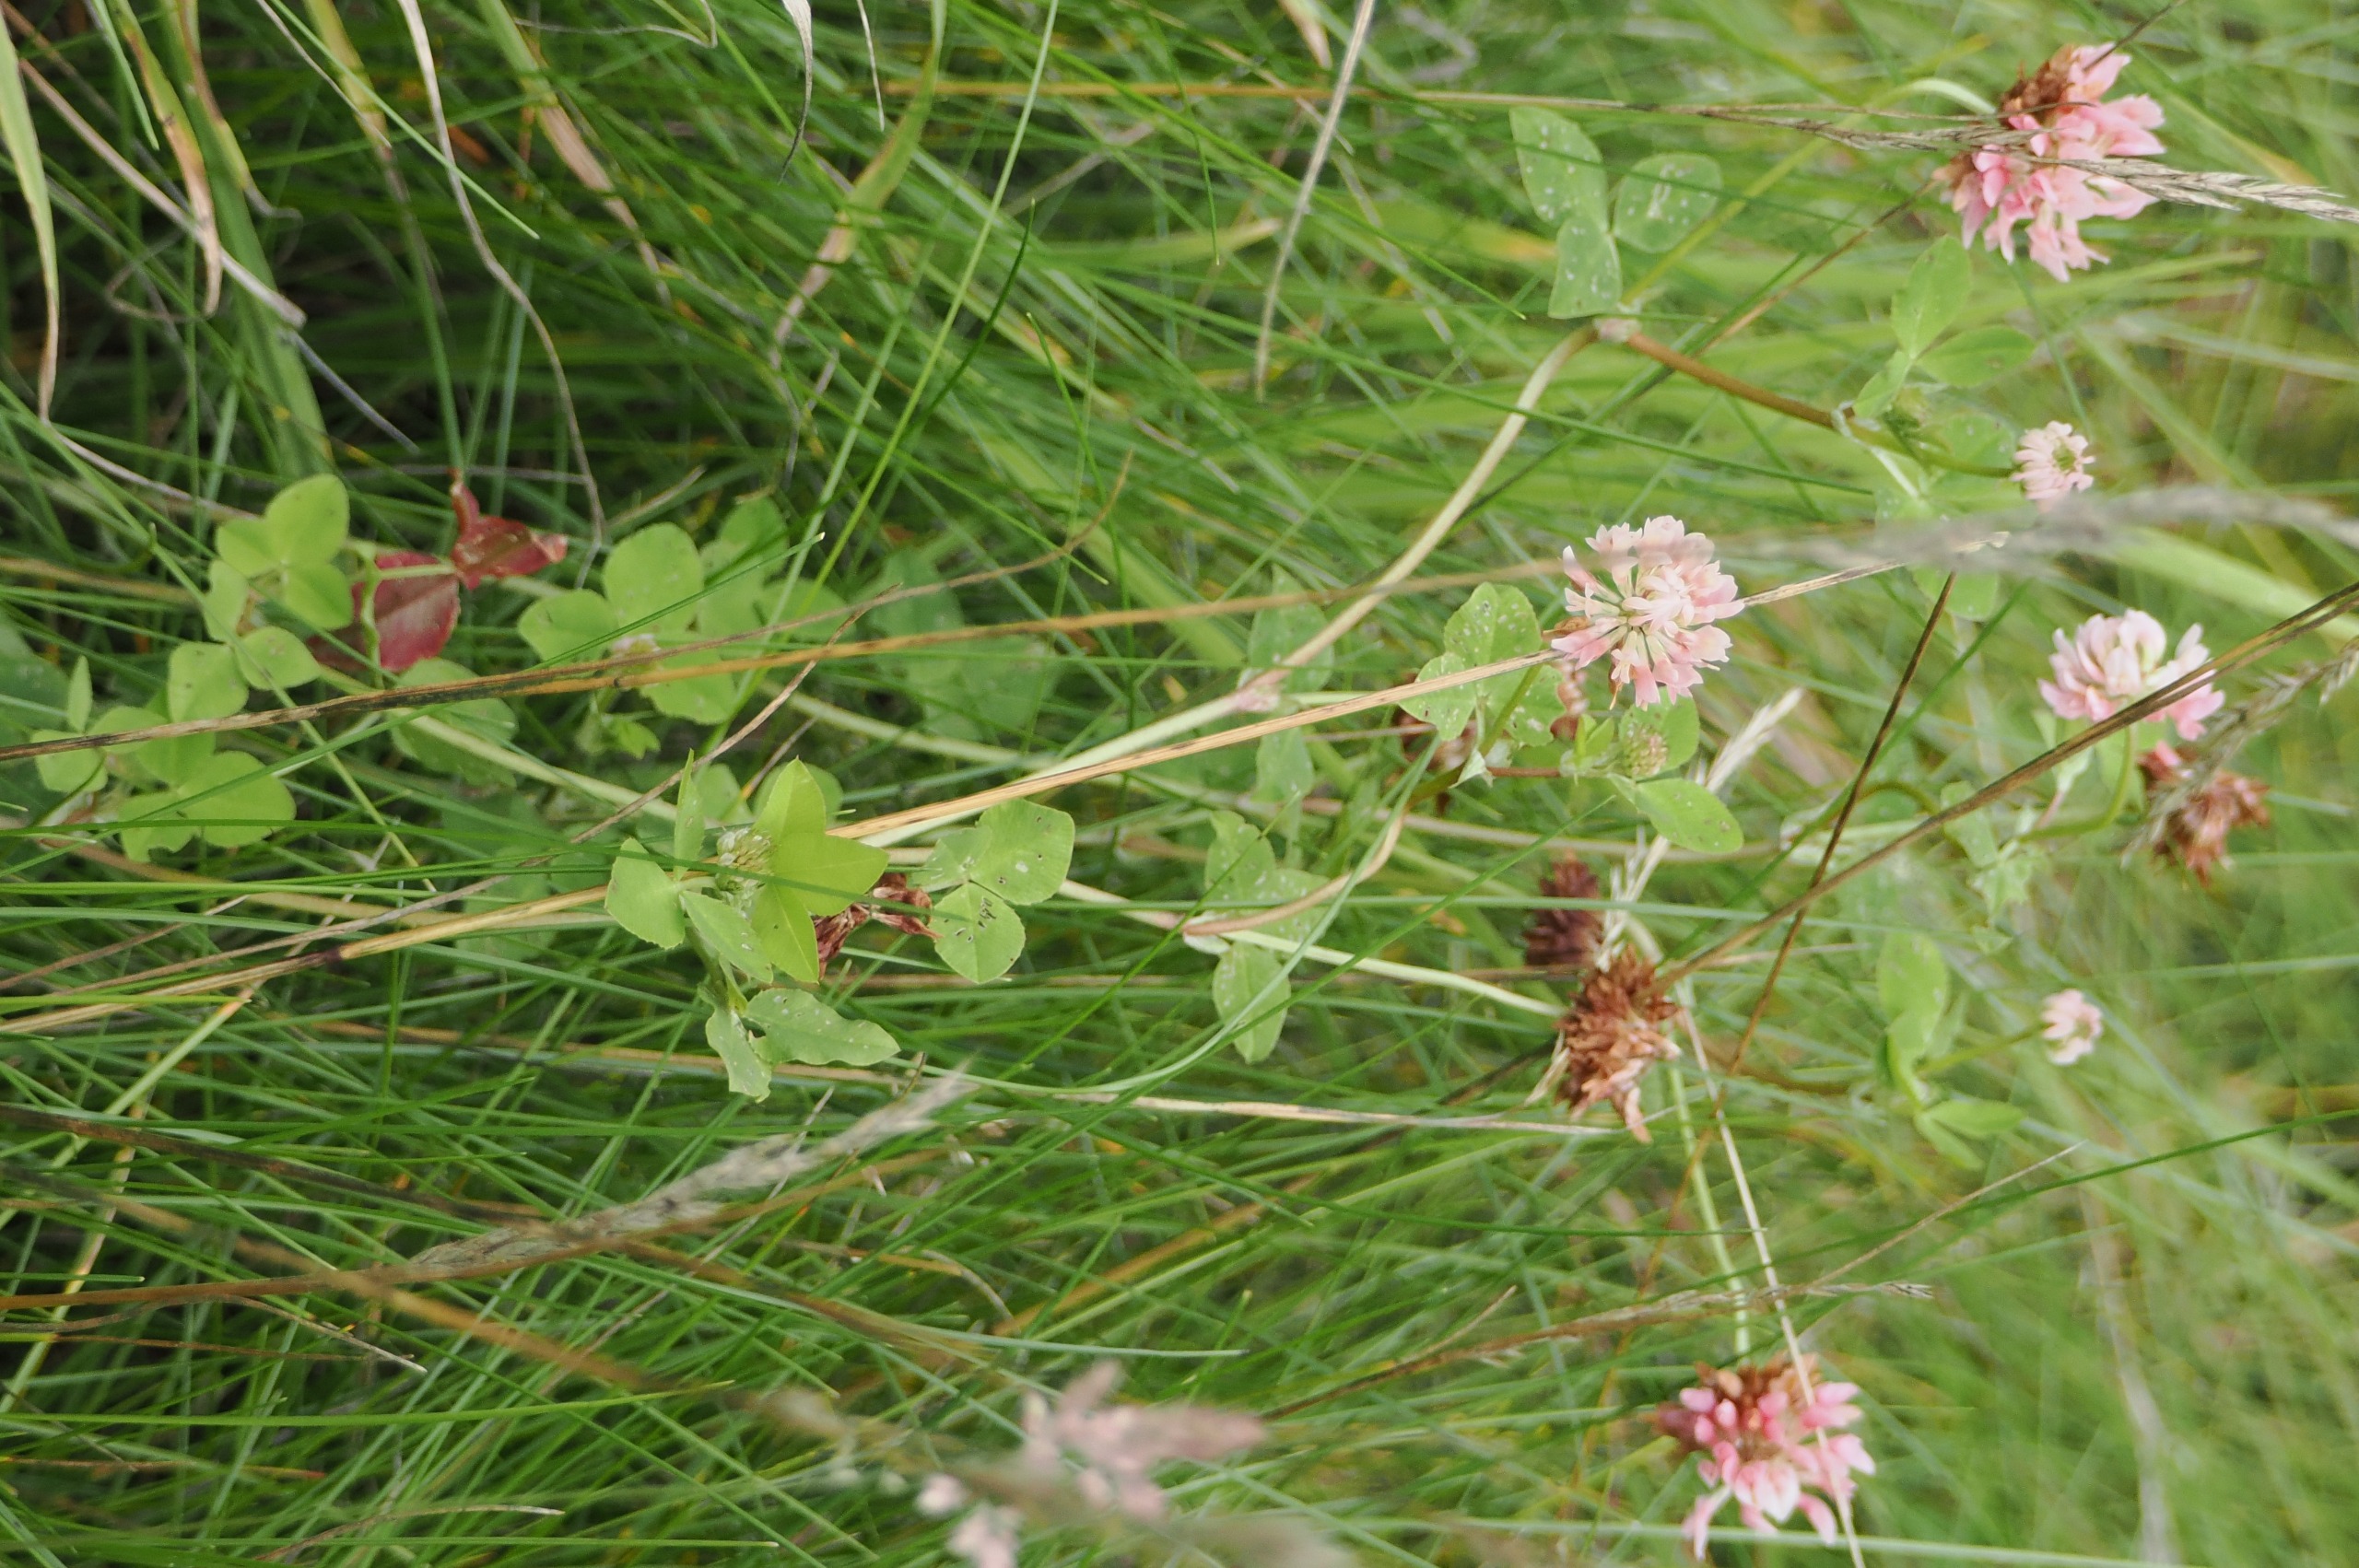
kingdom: Plantae
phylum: Tracheophyta
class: Magnoliopsida
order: Fabales
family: Fabaceae
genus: Trifolium
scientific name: Trifolium hybridum
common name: Alsike-kløver
